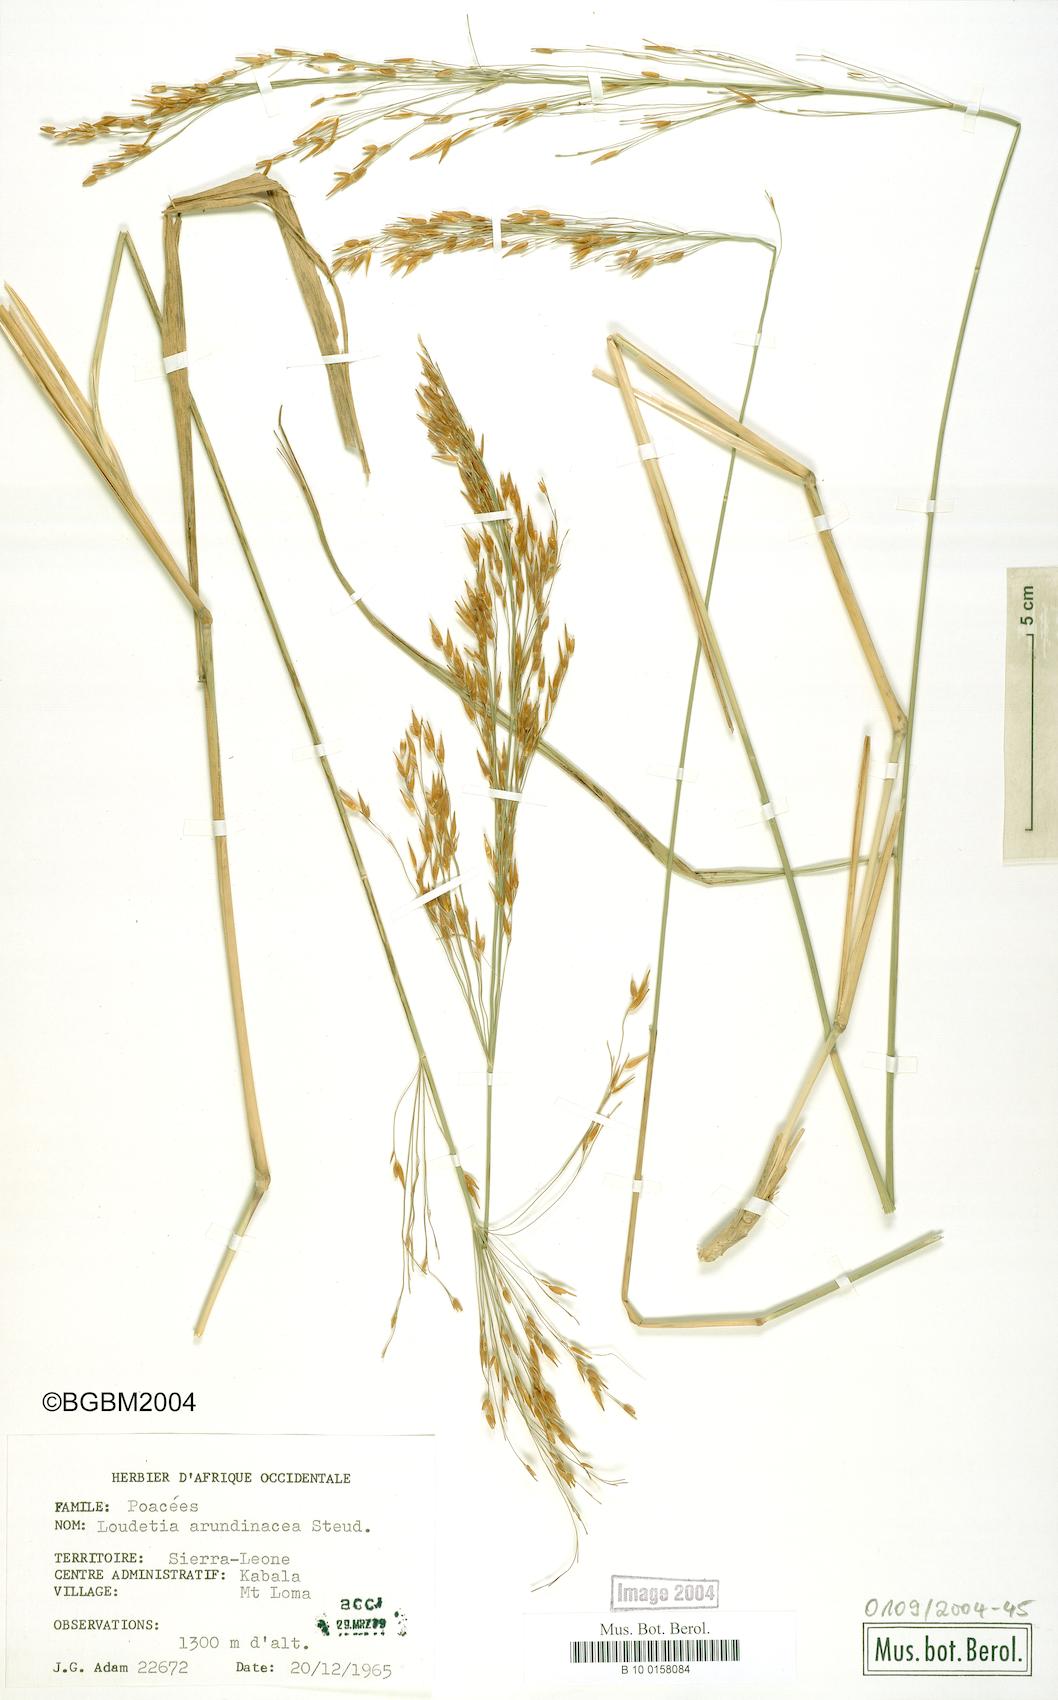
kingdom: Plantae
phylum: Tracheophyta
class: Liliopsida
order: Poales
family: Poaceae
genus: Loudetia
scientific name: Loudetia arundinacea
